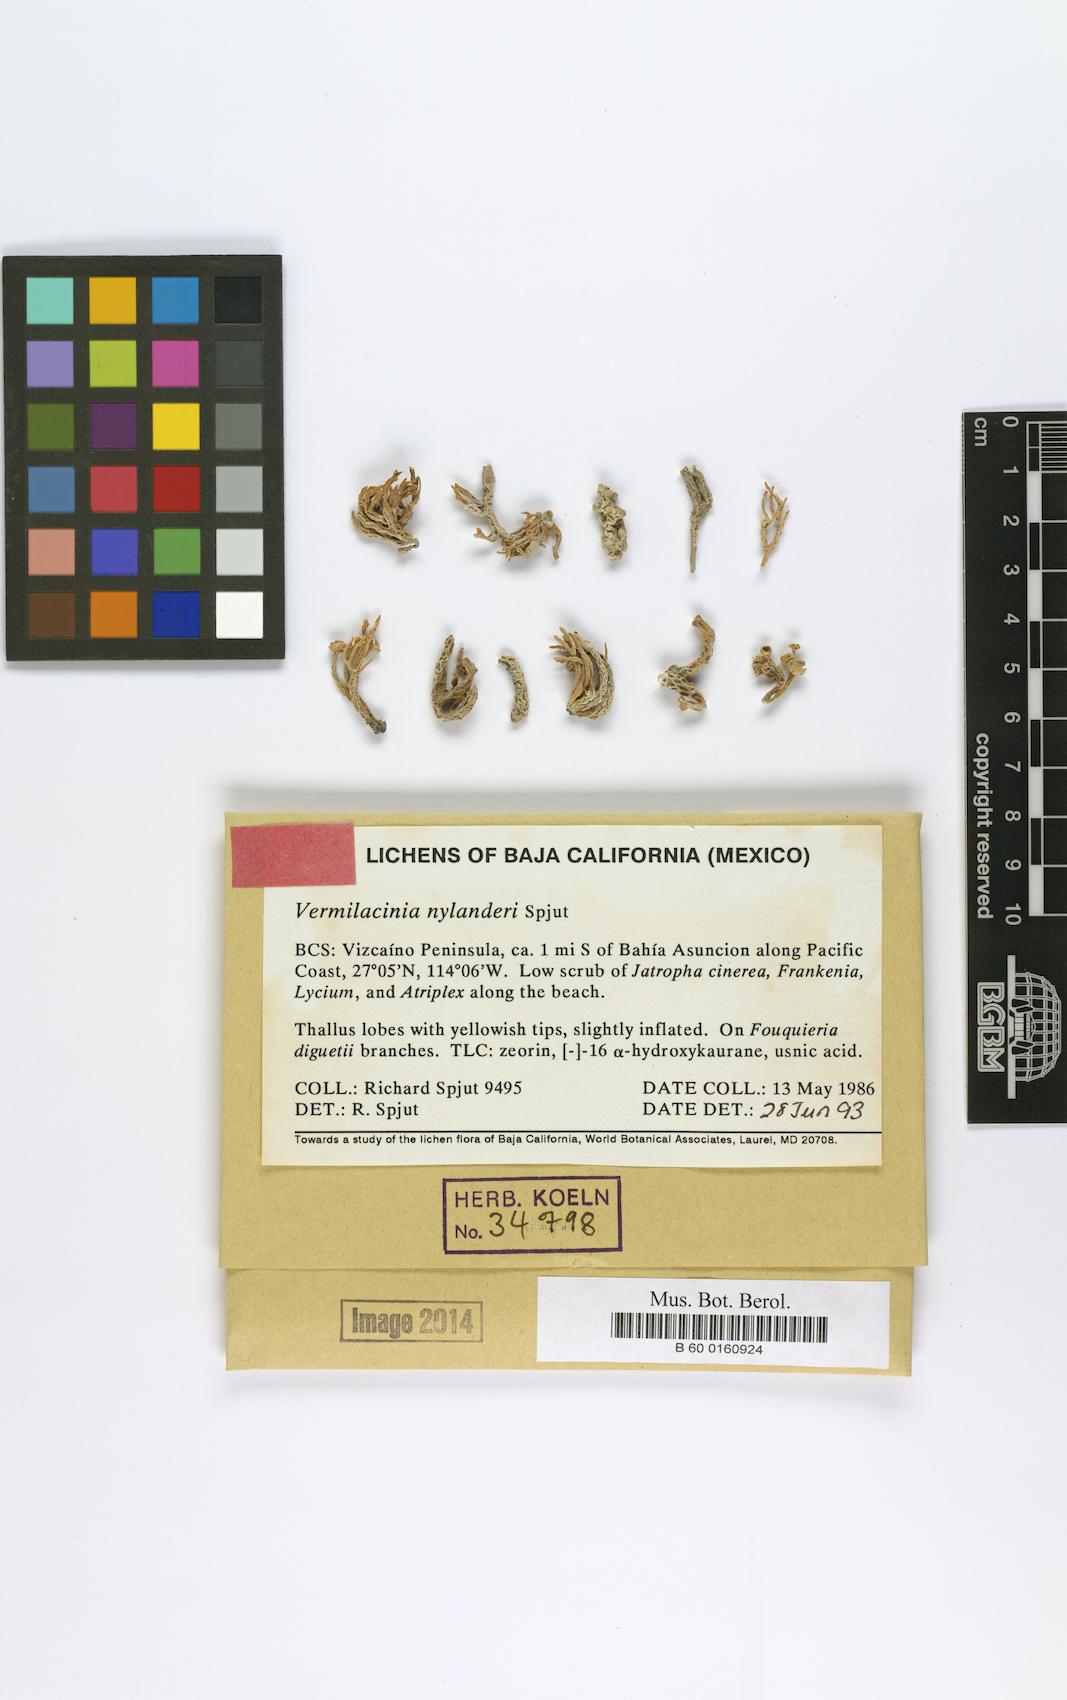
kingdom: Fungi
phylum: Ascomycota
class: Lecanoromycetes
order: Lecanorales
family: Ramalinaceae
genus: Vermilacinia
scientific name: Vermilacinia
